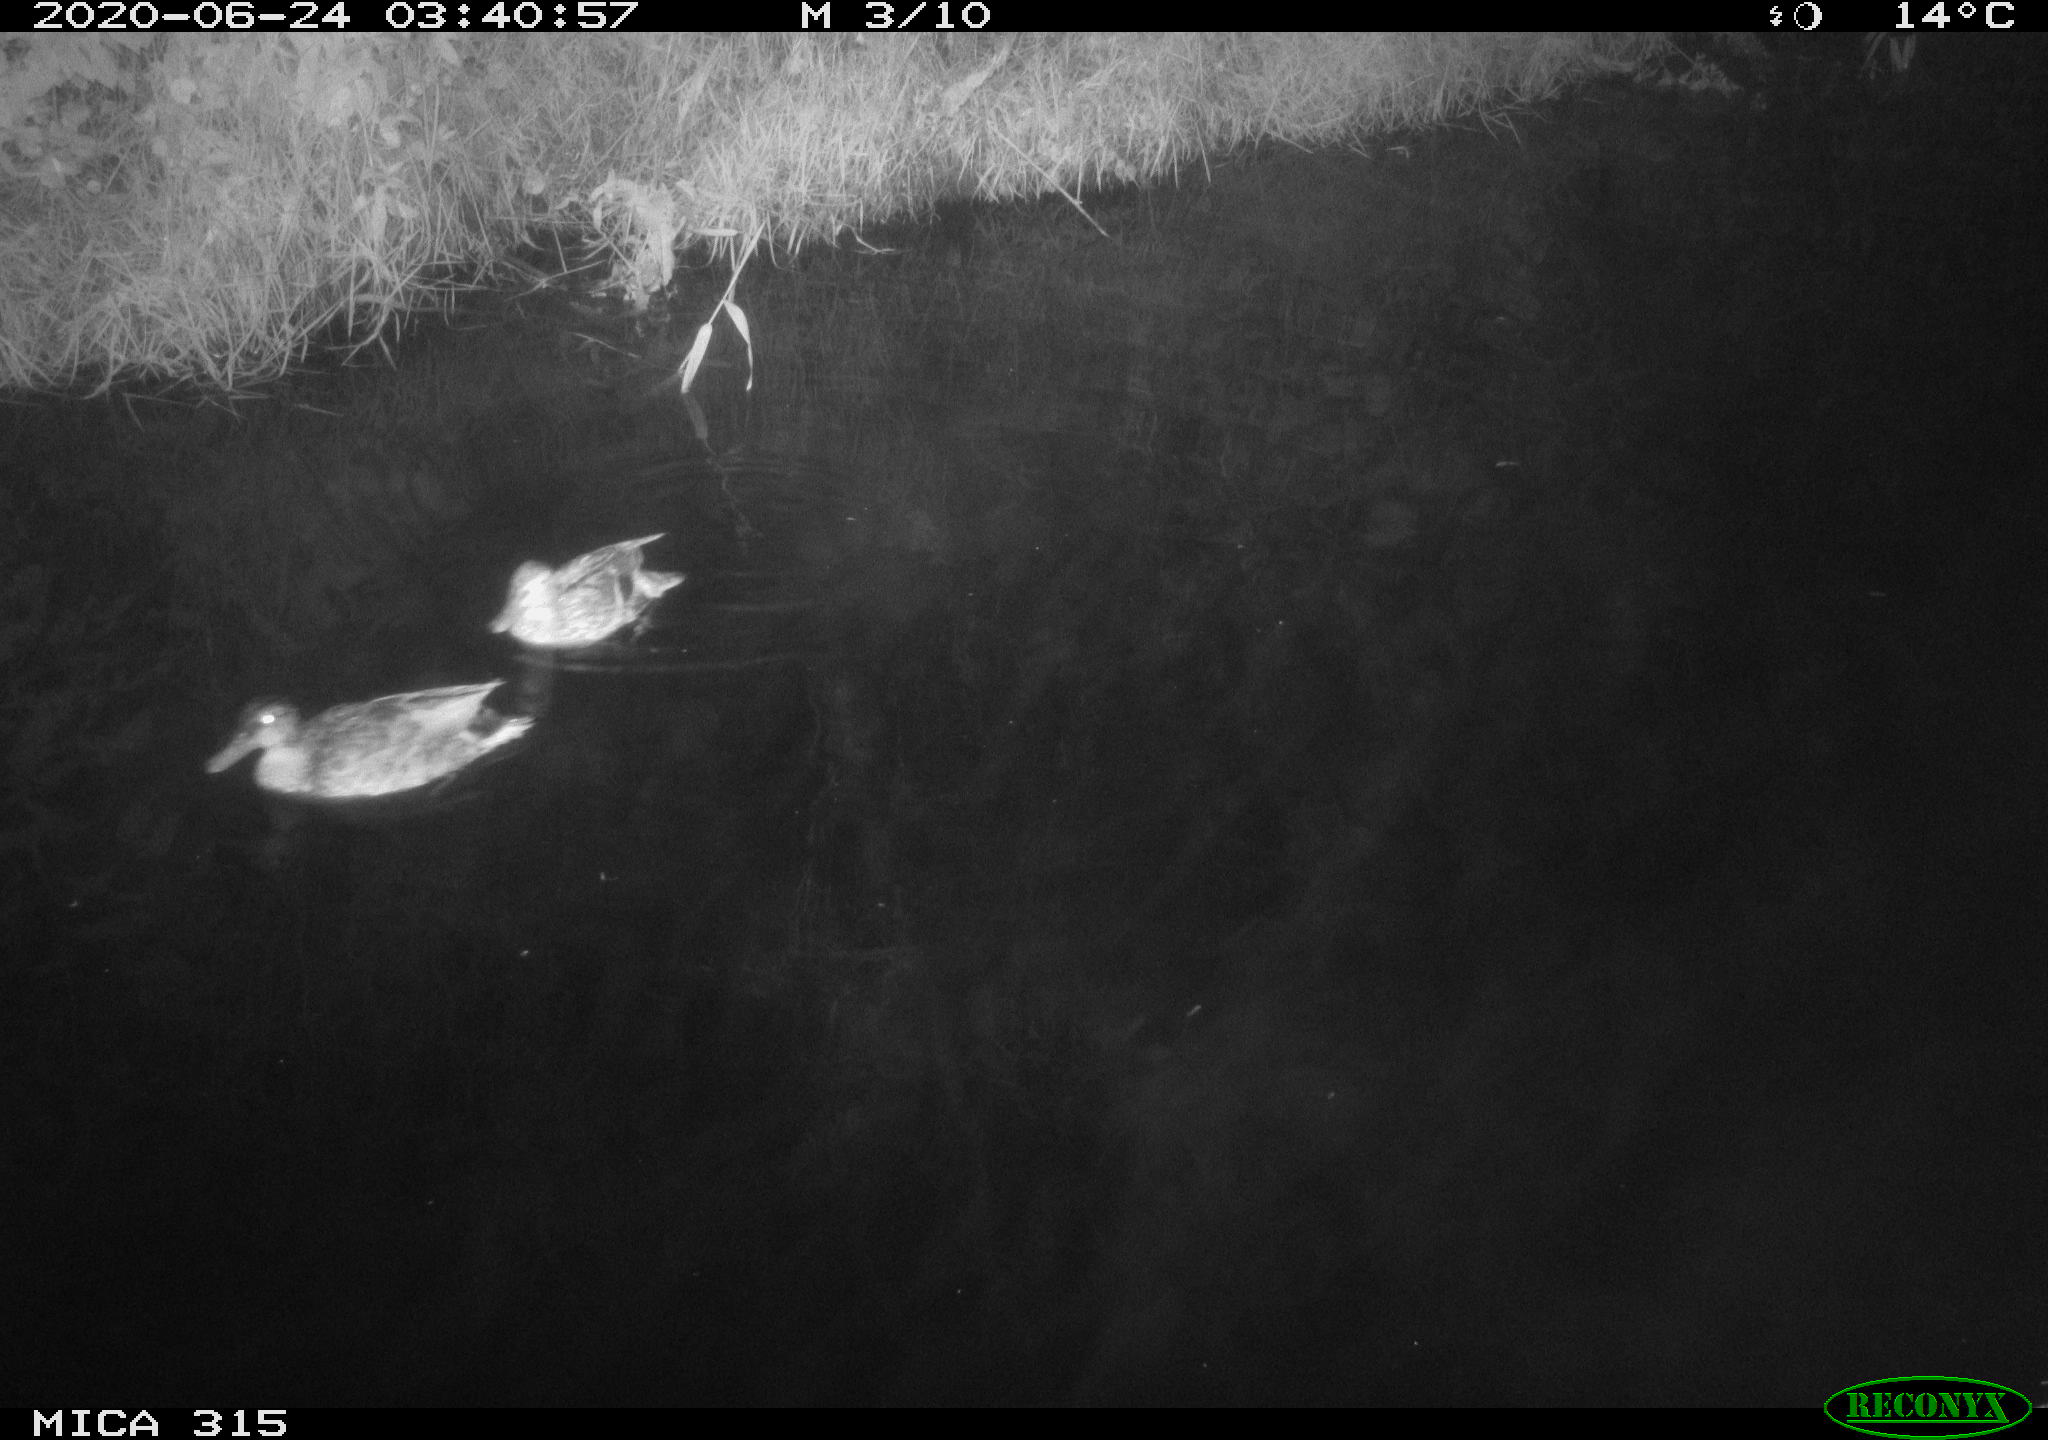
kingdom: Animalia
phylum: Chordata
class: Aves
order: Anseriformes
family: Anatidae
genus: Anas
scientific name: Anas platyrhynchos
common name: Mallard
